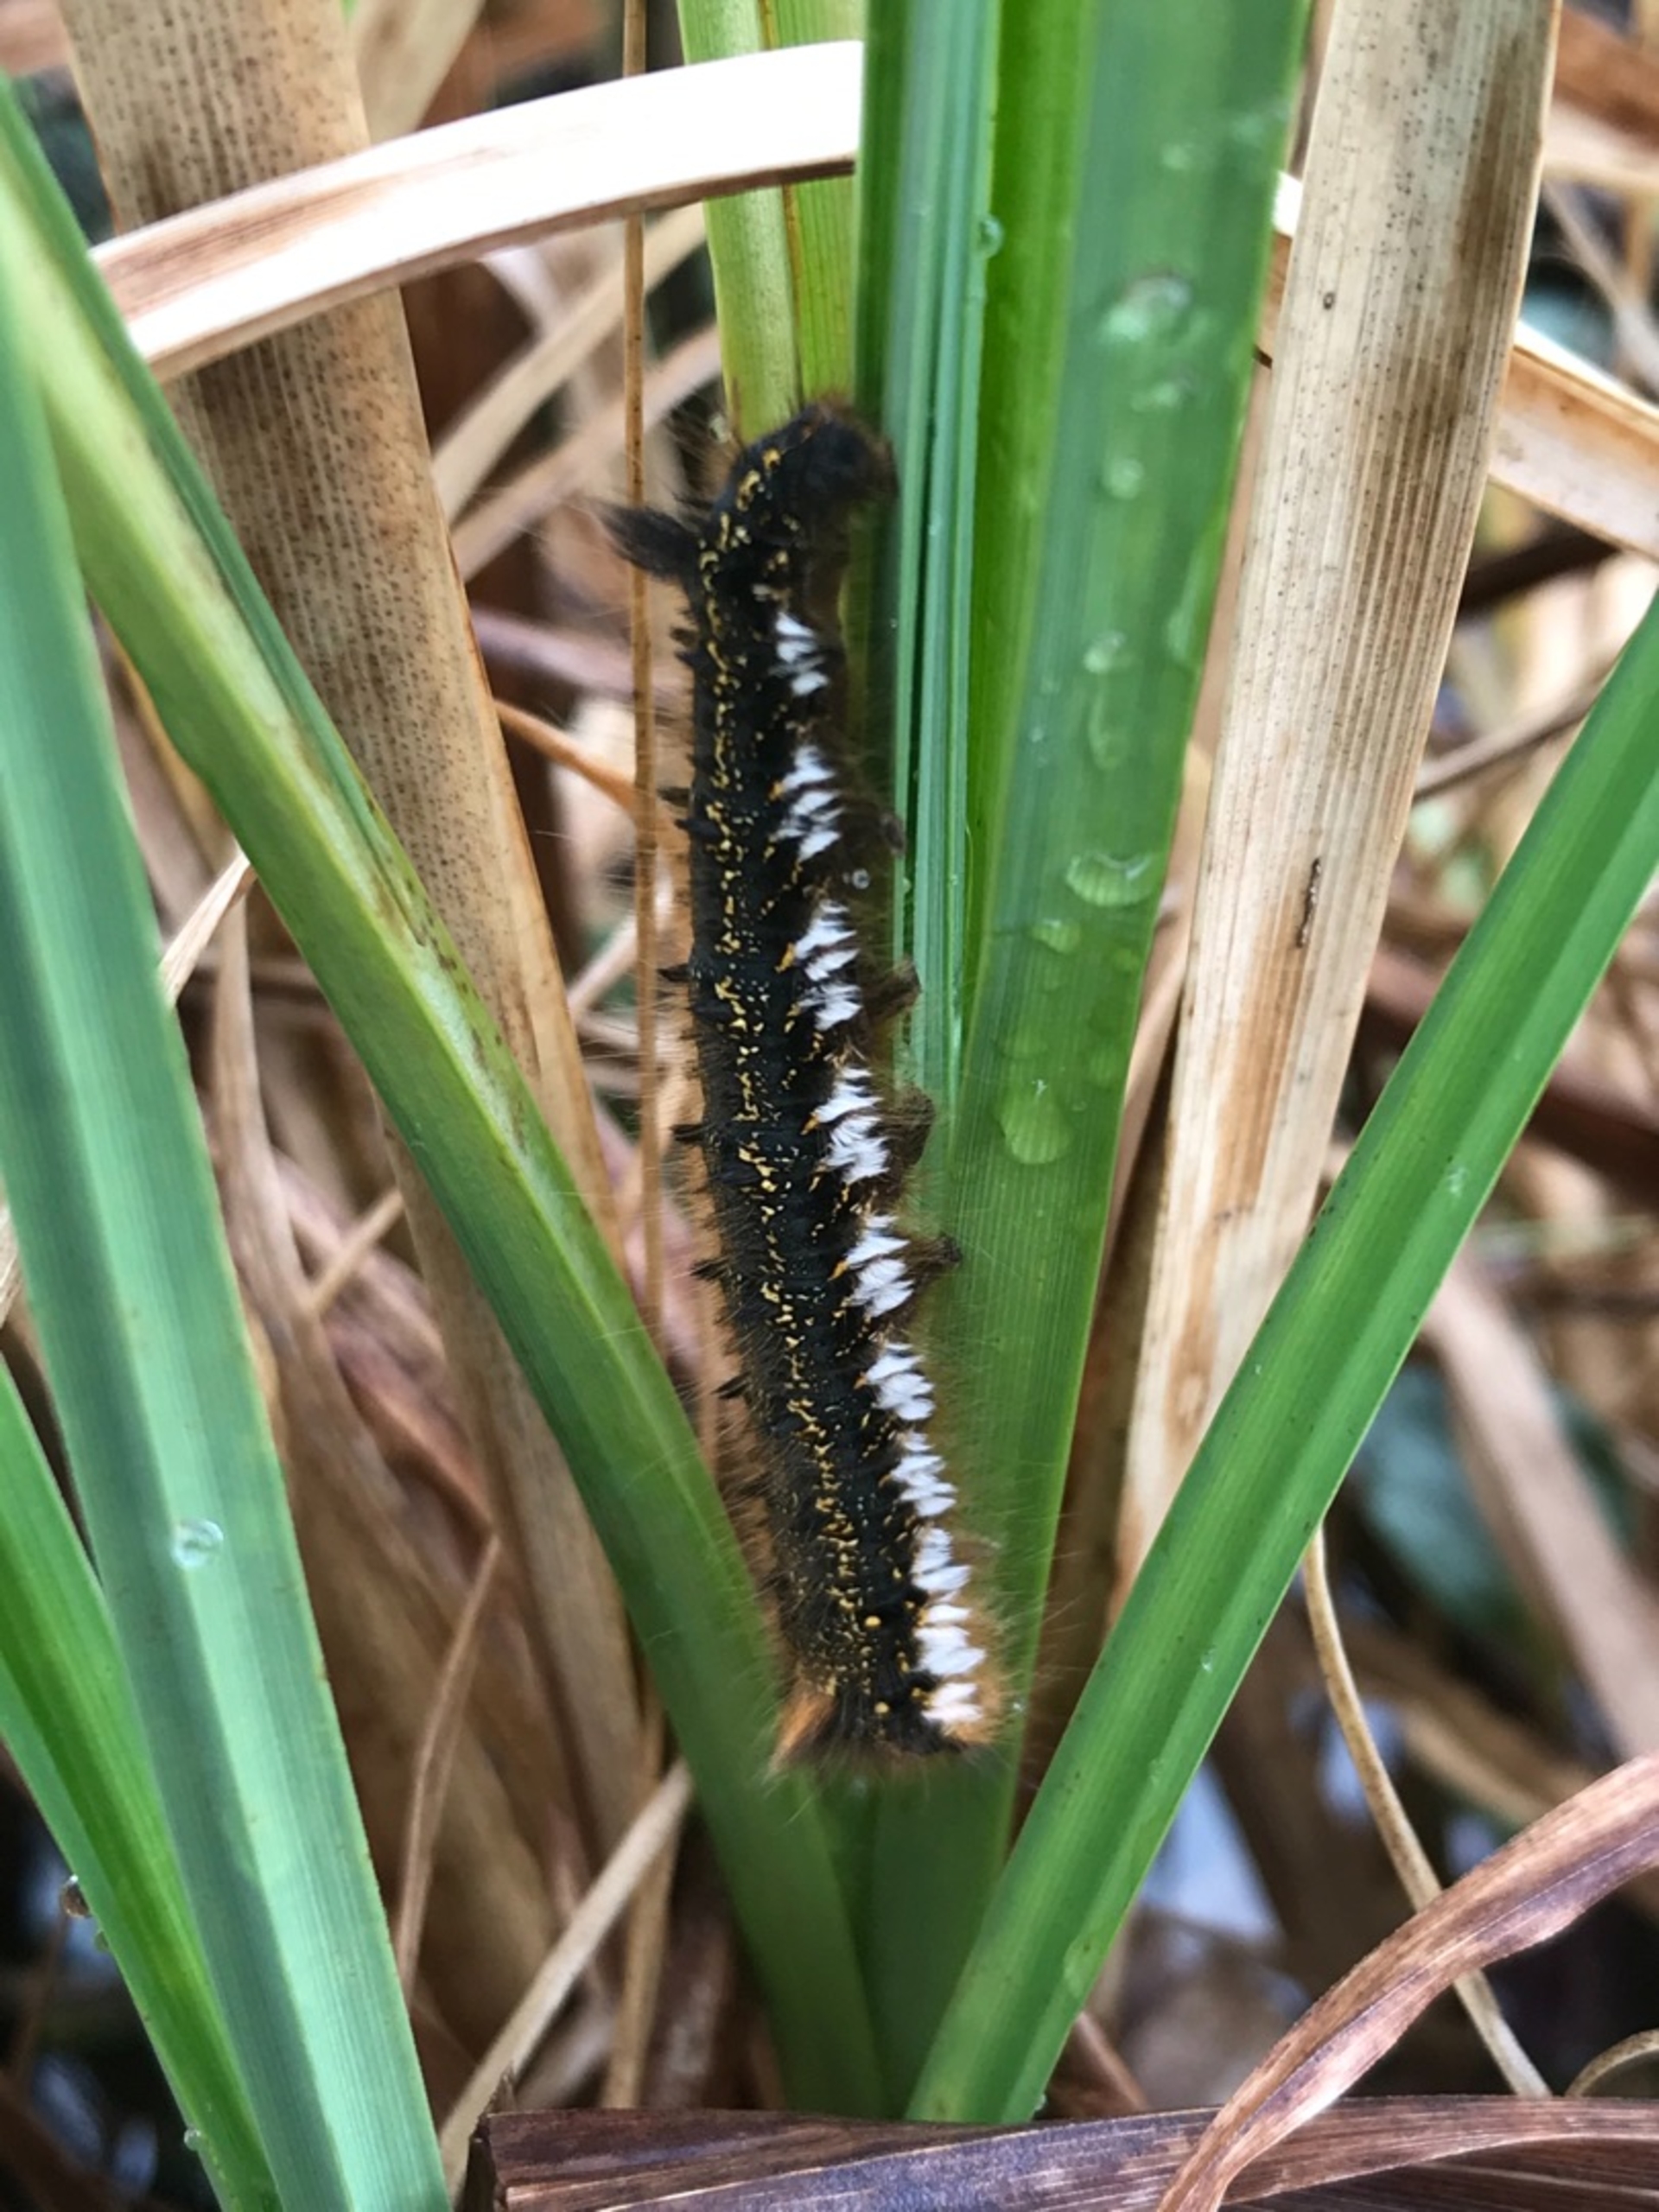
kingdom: Animalia
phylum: Arthropoda
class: Insecta
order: Lepidoptera
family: Lasiocampidae
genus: Euthrix
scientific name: Euthrix potatoria
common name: Græsspinder
